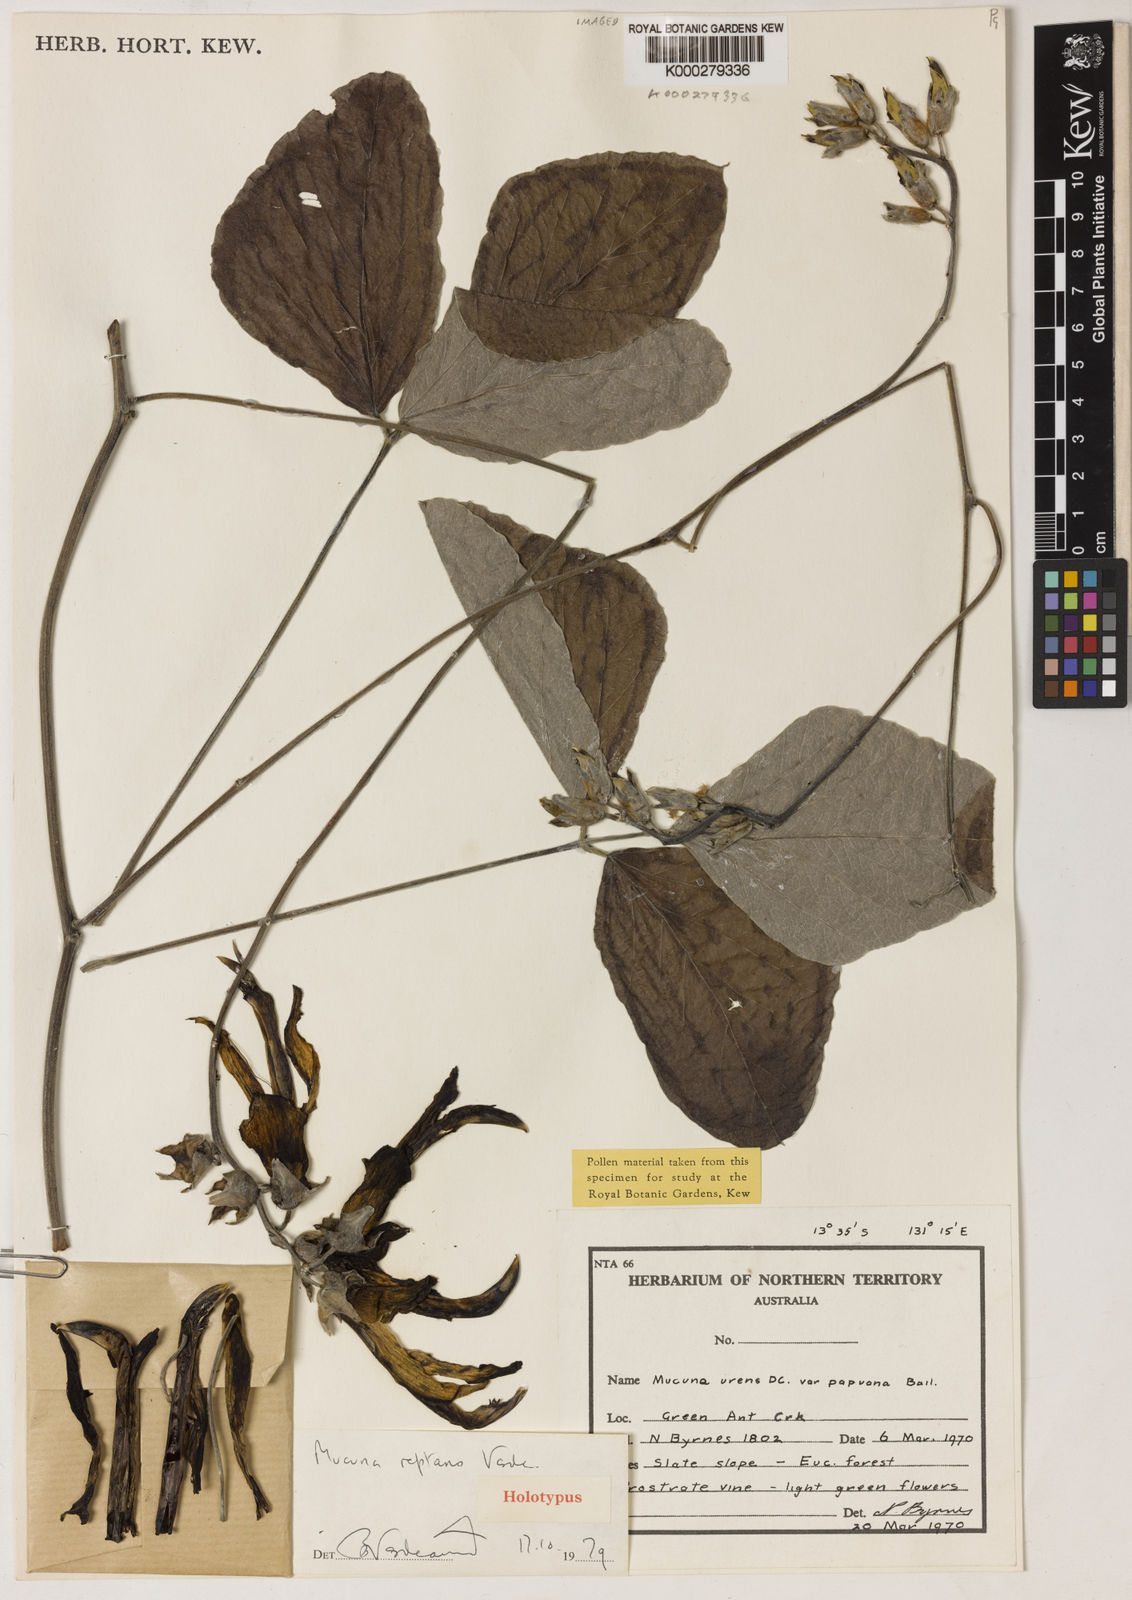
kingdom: Plantae
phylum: Tracheophyta
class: Magnoliopsida
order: Fabales
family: Fabaceae
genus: Mucuna
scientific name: Mucuna reptans
